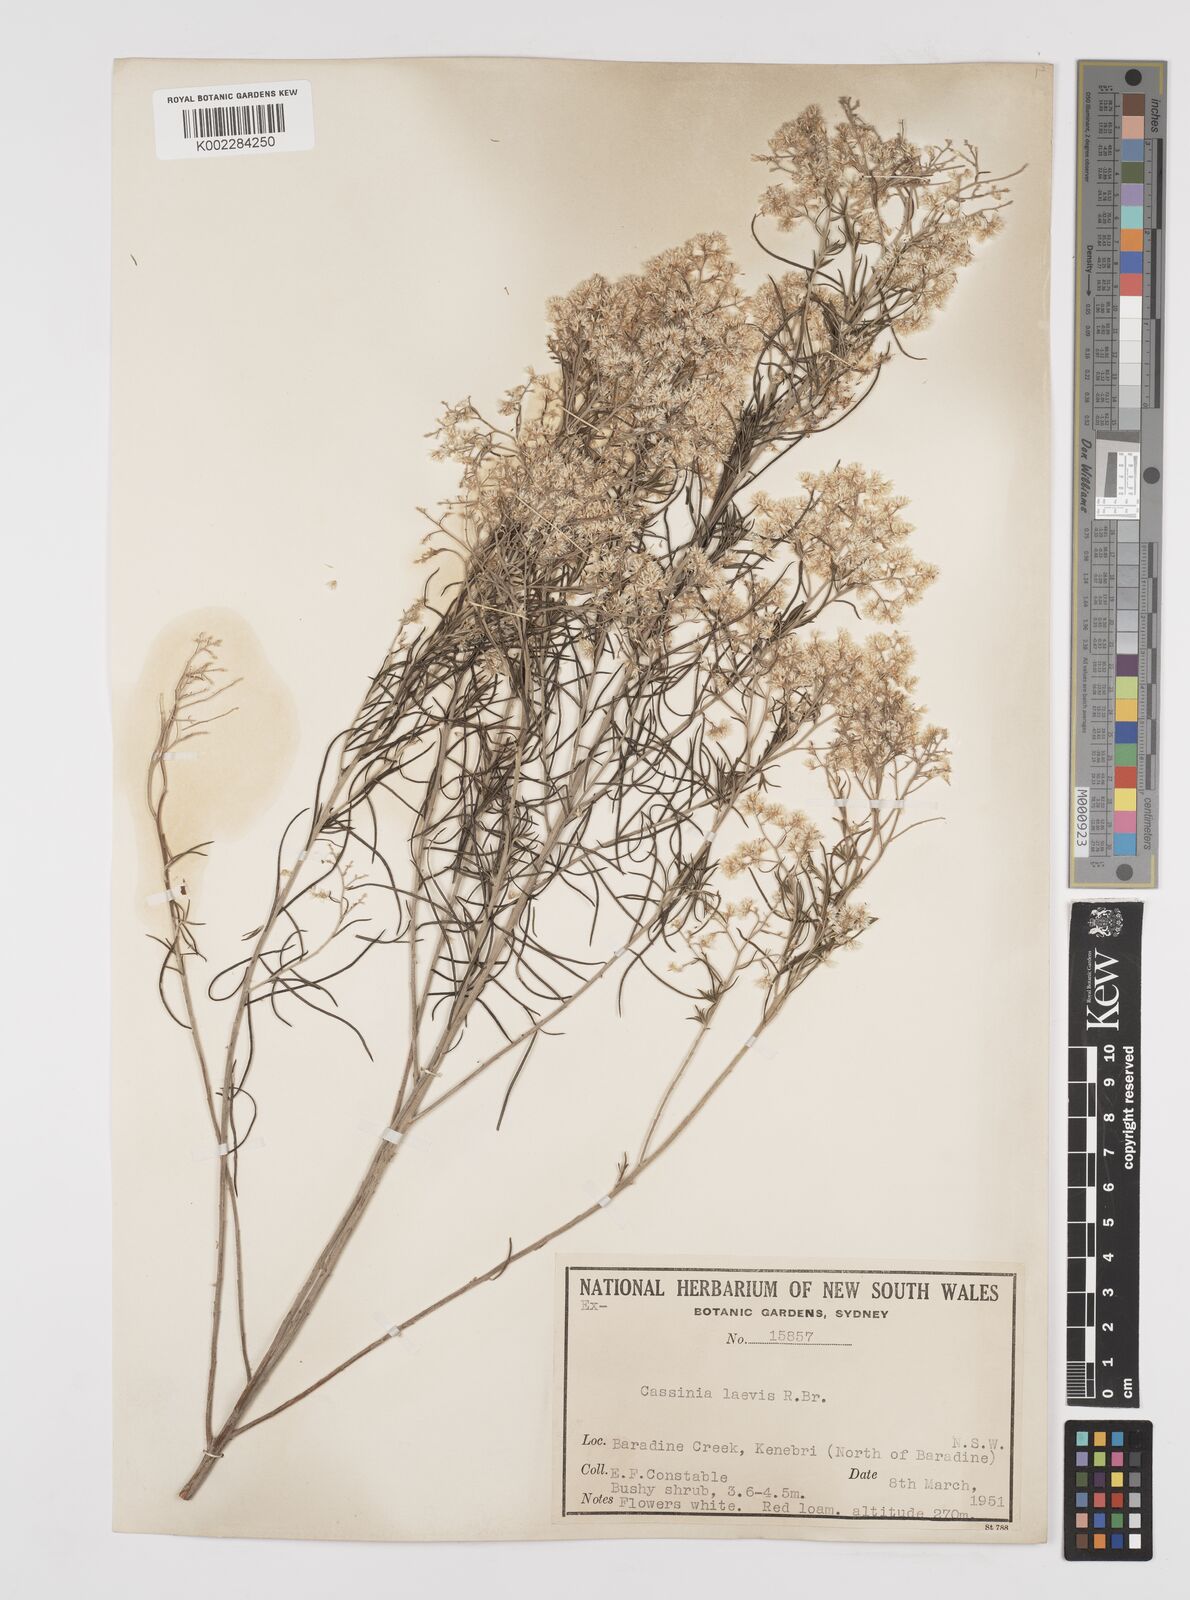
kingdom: Plantae
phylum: Tracheophyta
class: Magnoliopsida
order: Asterales
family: Asteraceae
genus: Cassinia
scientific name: Cassinia laevis
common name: Coughbush
